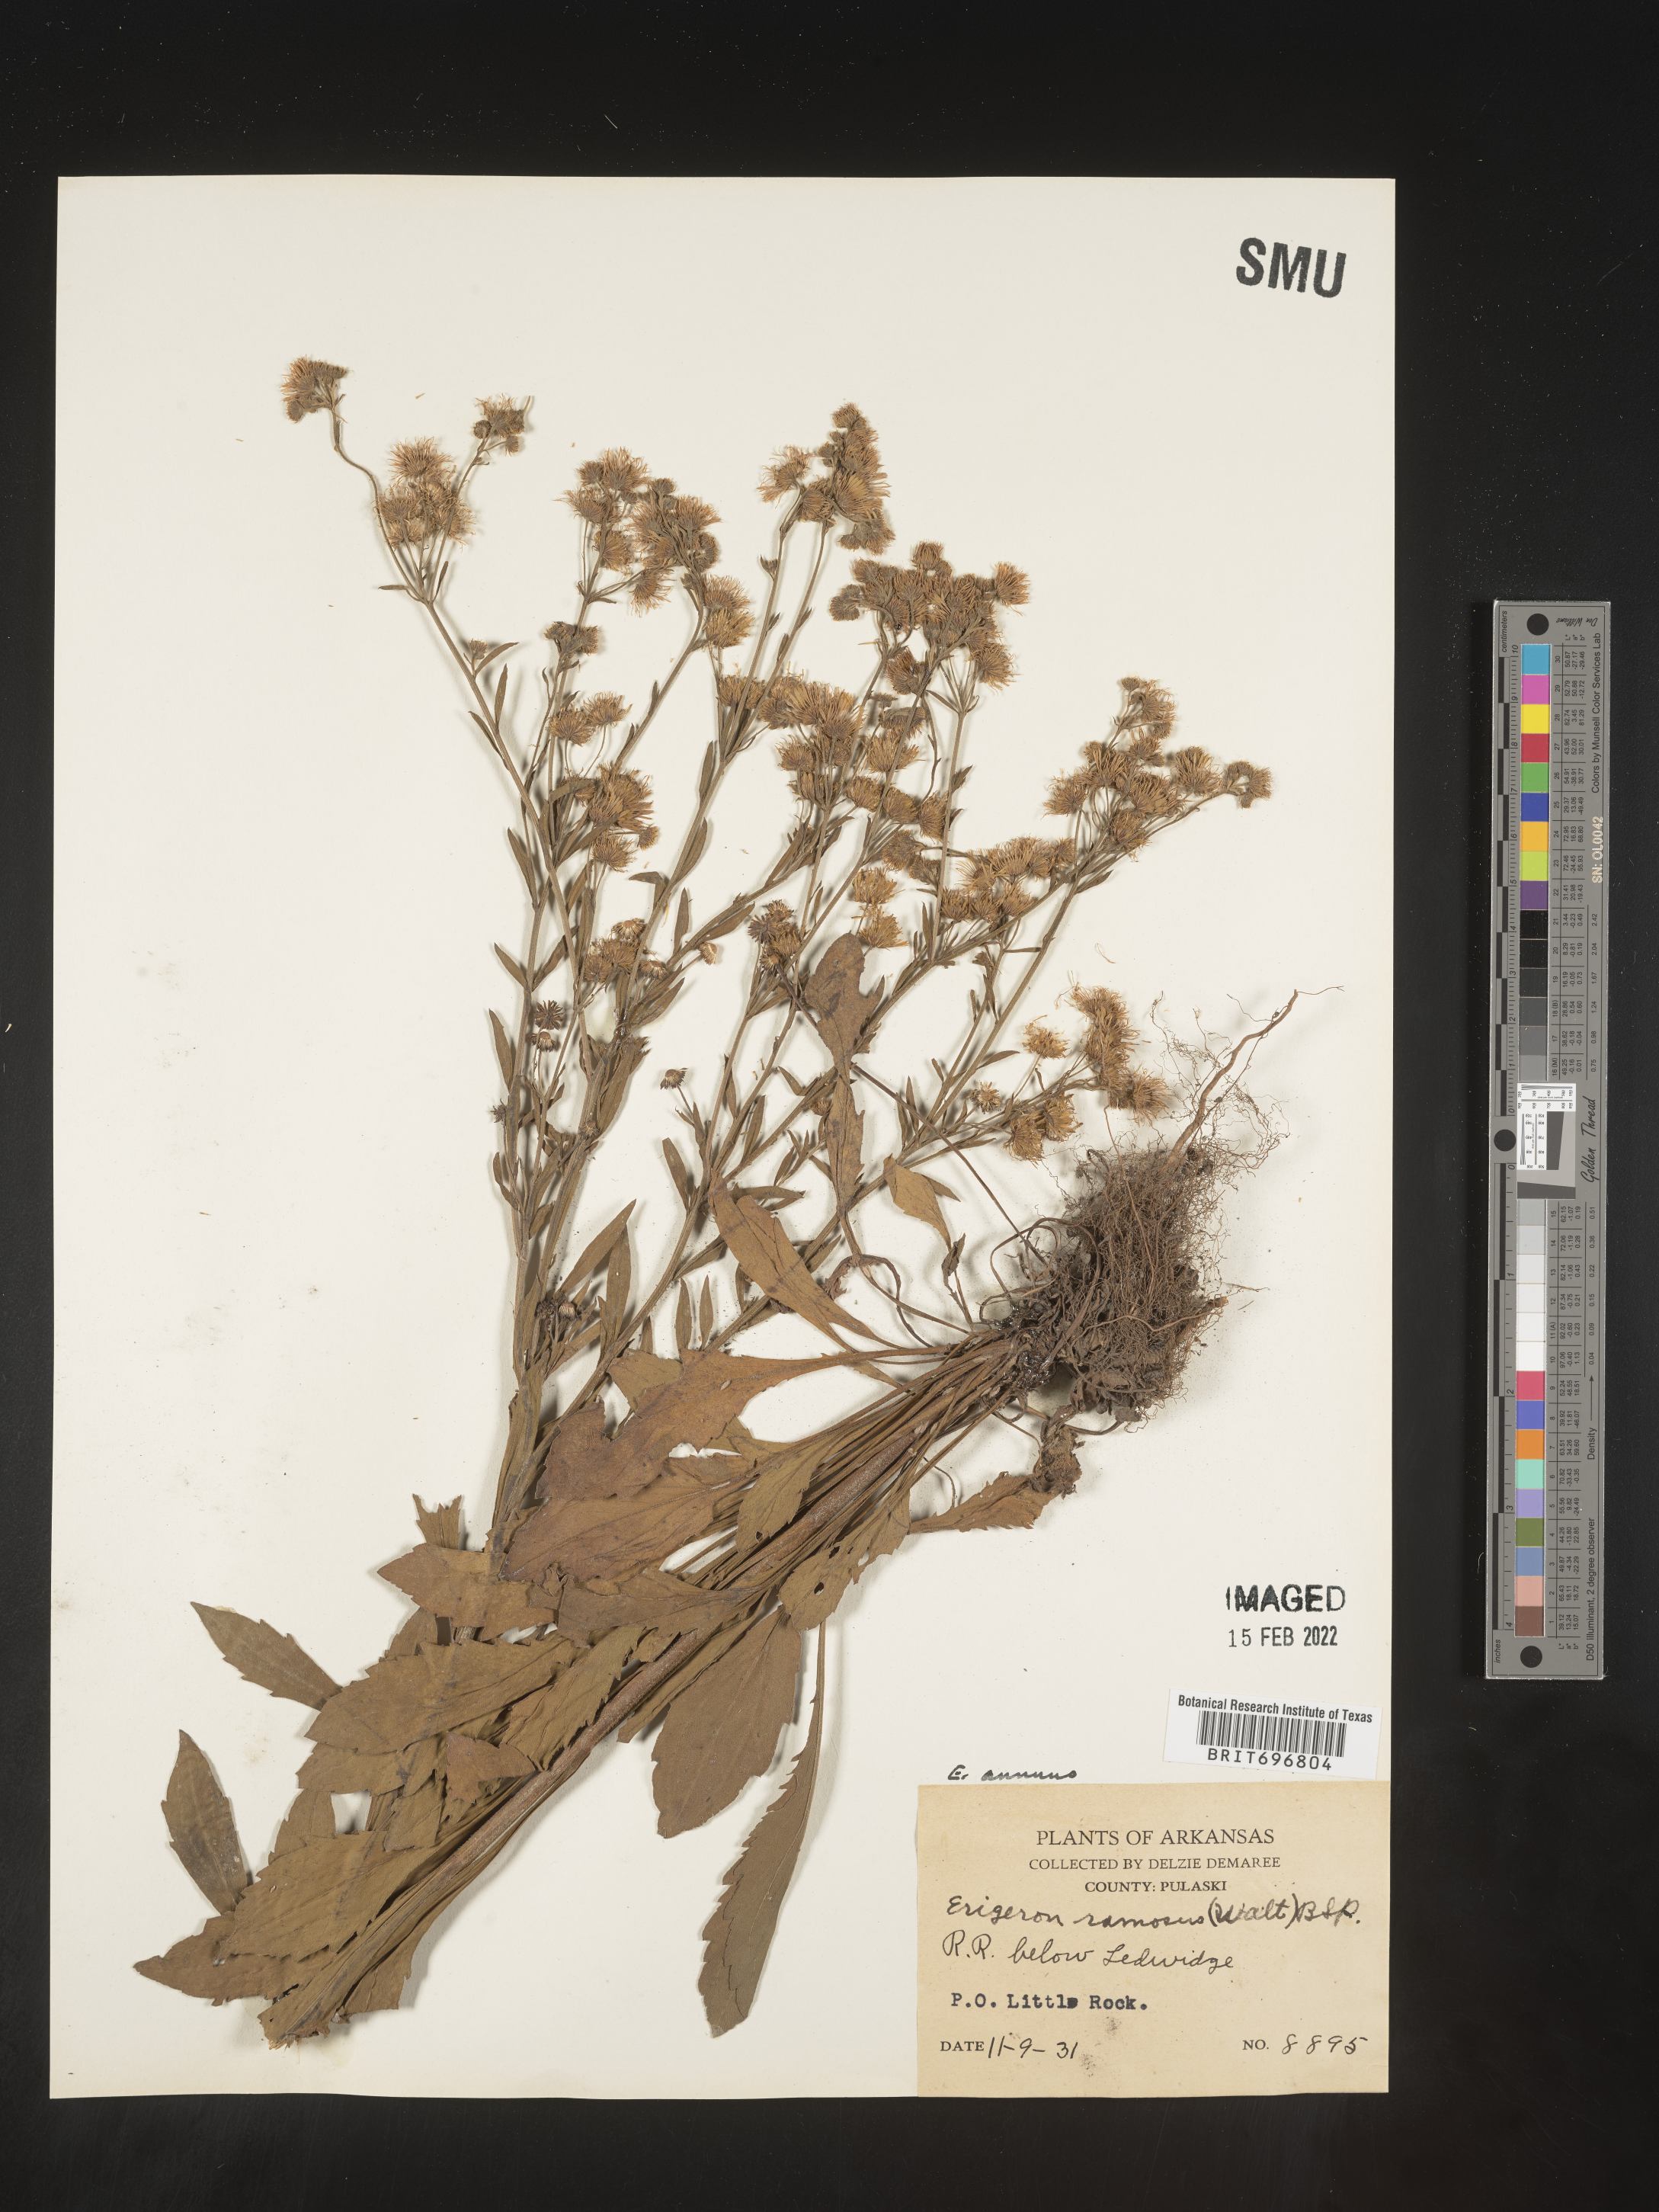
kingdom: Plantae
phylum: Tracheophyta
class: Magnoliopsida
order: Asterales
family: Asteraceae
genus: Erigeron
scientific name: Erigeron annuus
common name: Tall fleabane
